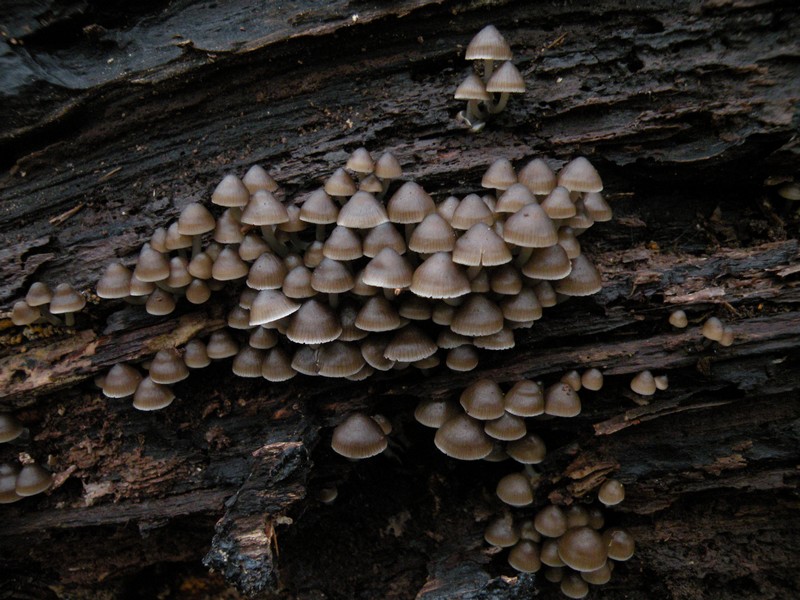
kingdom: Fungi
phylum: Basidiomycota
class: Agaricomycetes
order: Agaricales
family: Mycenaceae
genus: Mycena
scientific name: Mycena tintinnabulum
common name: vinter-huesvamp
